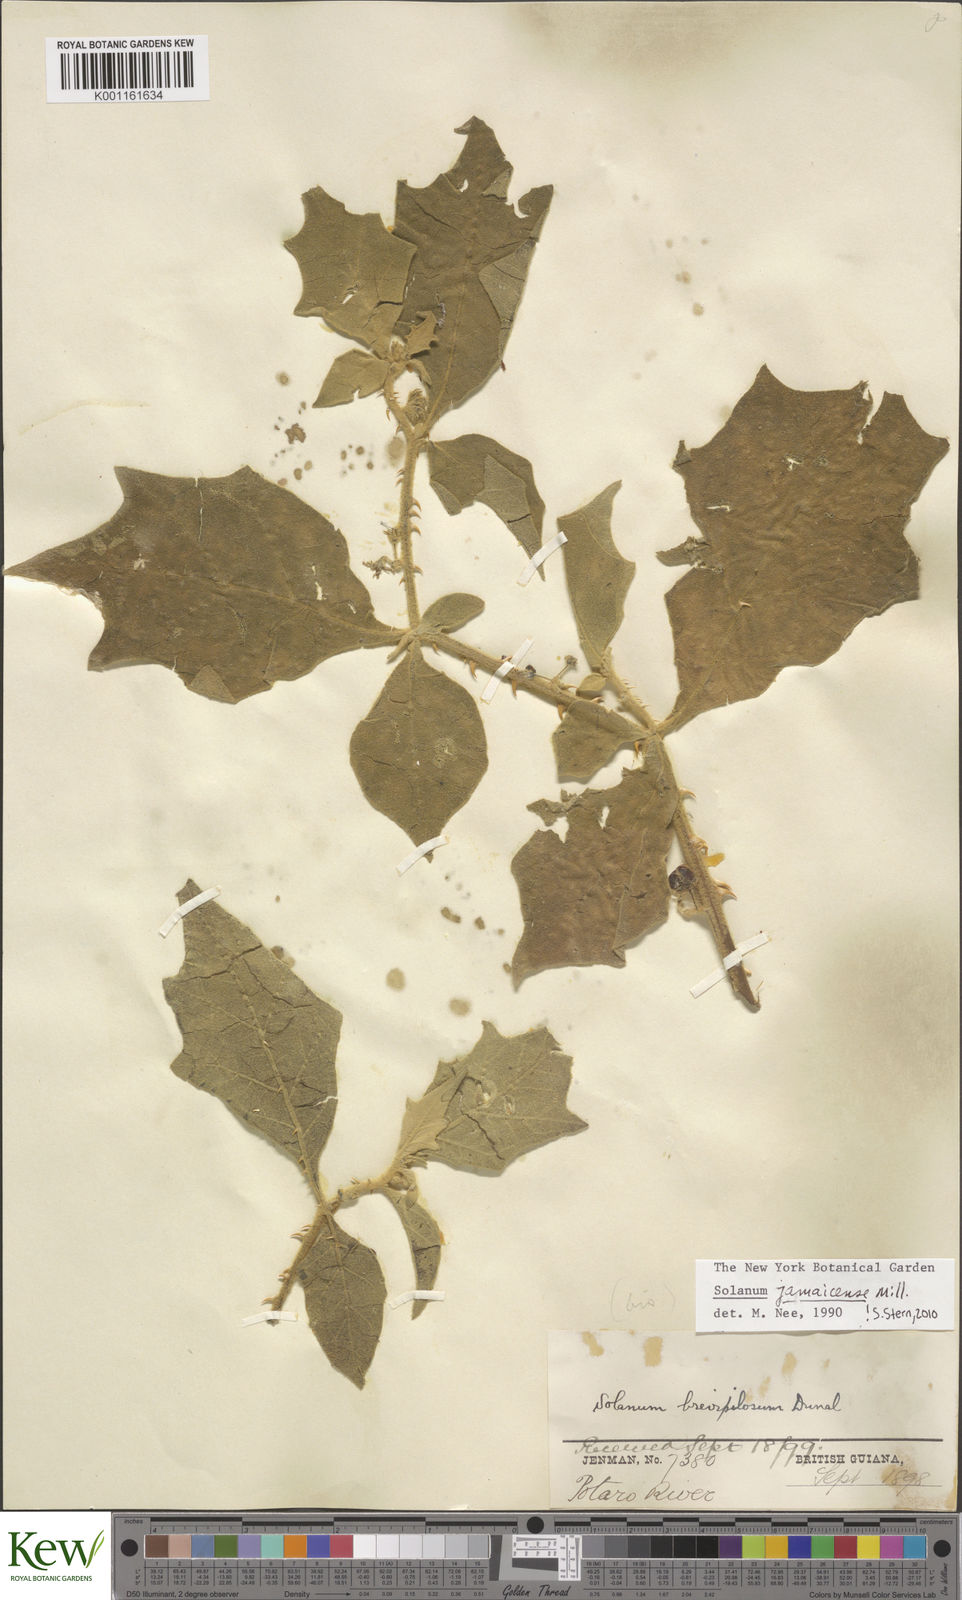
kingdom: Plantae
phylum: Tracheophyta
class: Magnoliopsida
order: Solanales
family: Solanaceae
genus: Solanum
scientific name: Solanum jamaicense
